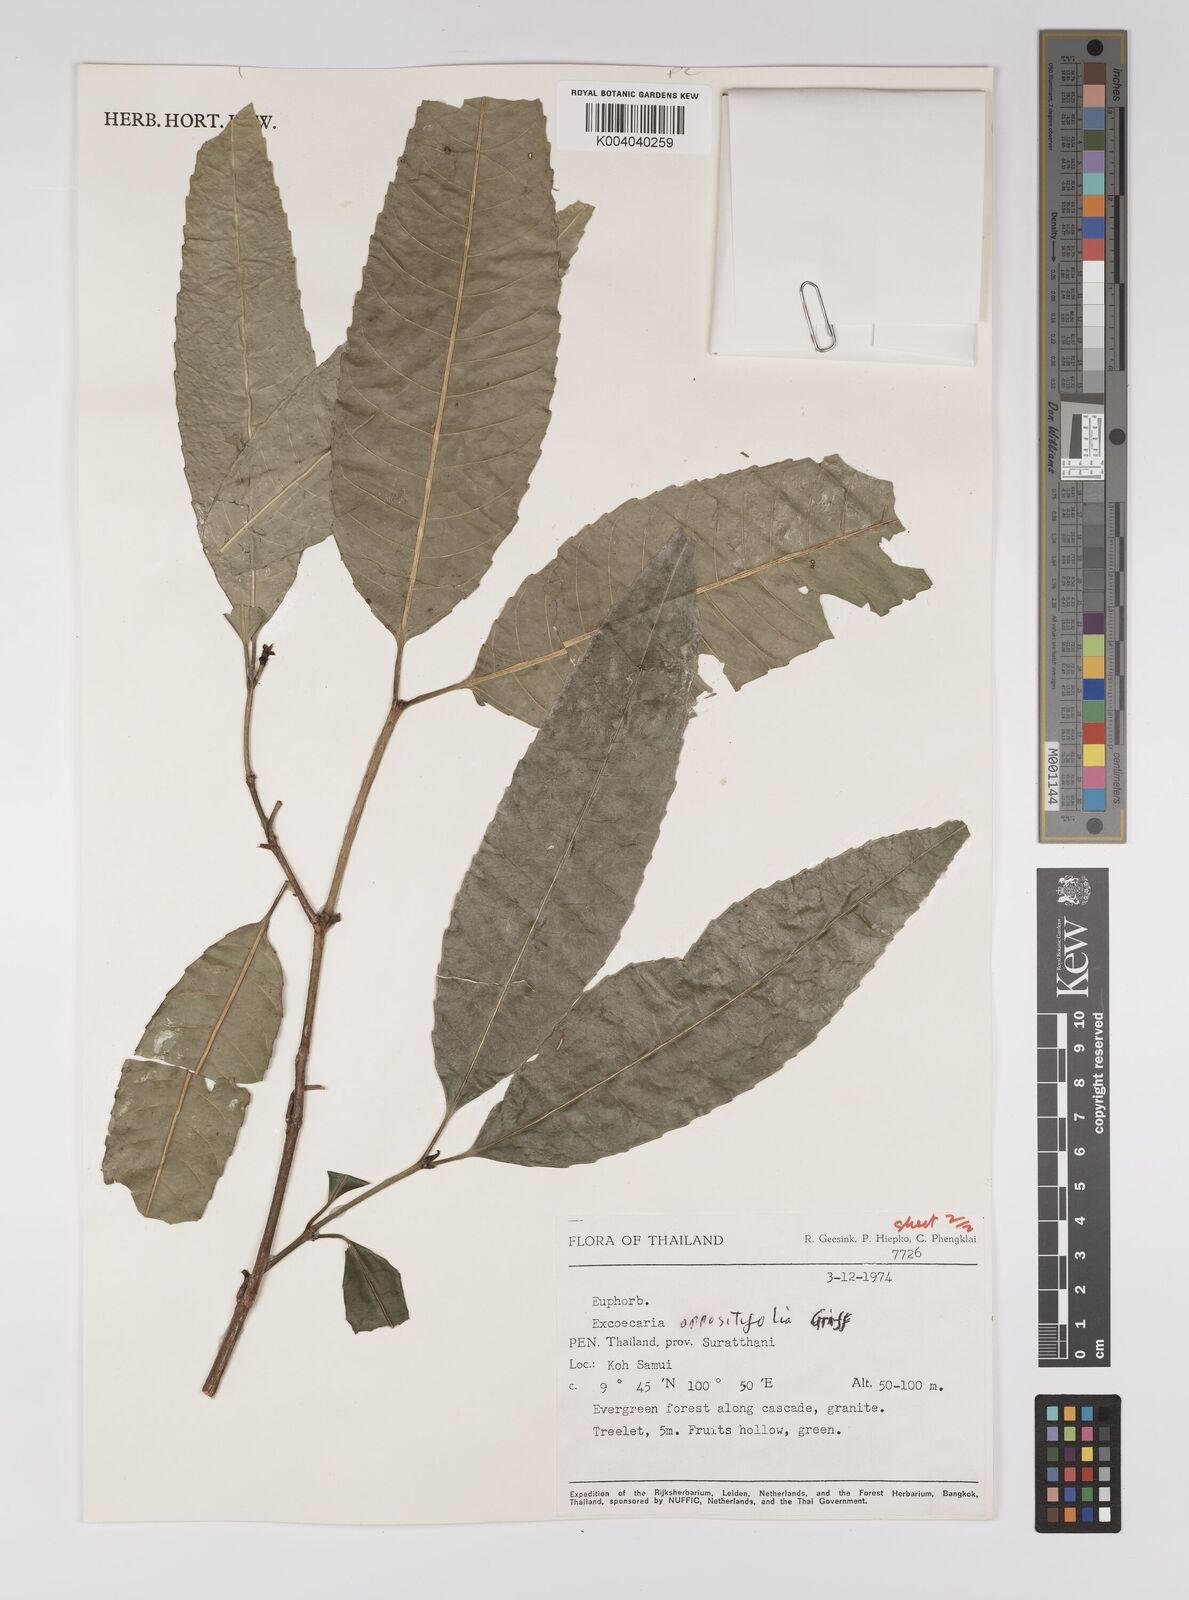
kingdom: Plantae
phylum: Tracheophyta
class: Magnoliopsida
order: Malpighiales
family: Euphorbiaceae
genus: Excoecaria
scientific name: Excoecaria oppositifolia
